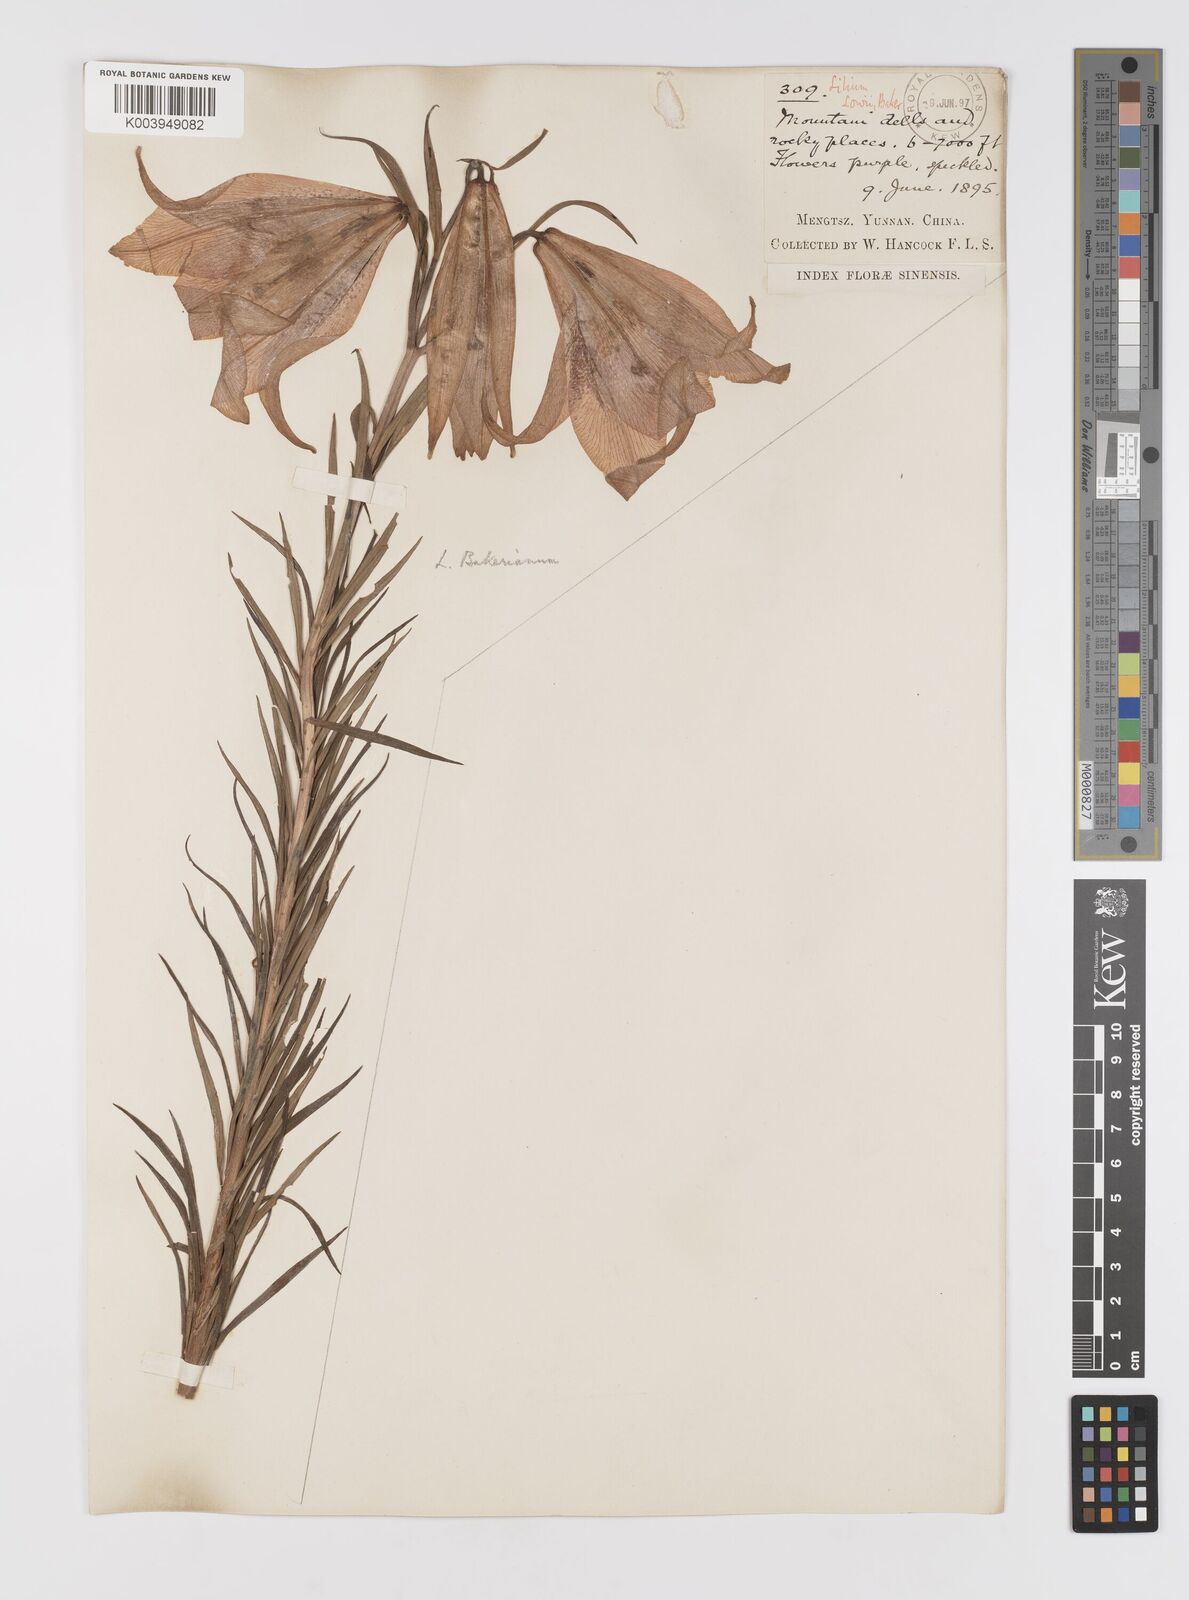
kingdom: Plantae
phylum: Tracheophyta
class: Liliopsida
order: Liliales
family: Liliaceae
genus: Lilium
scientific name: Lilium bakerianum
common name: Baker's lily
